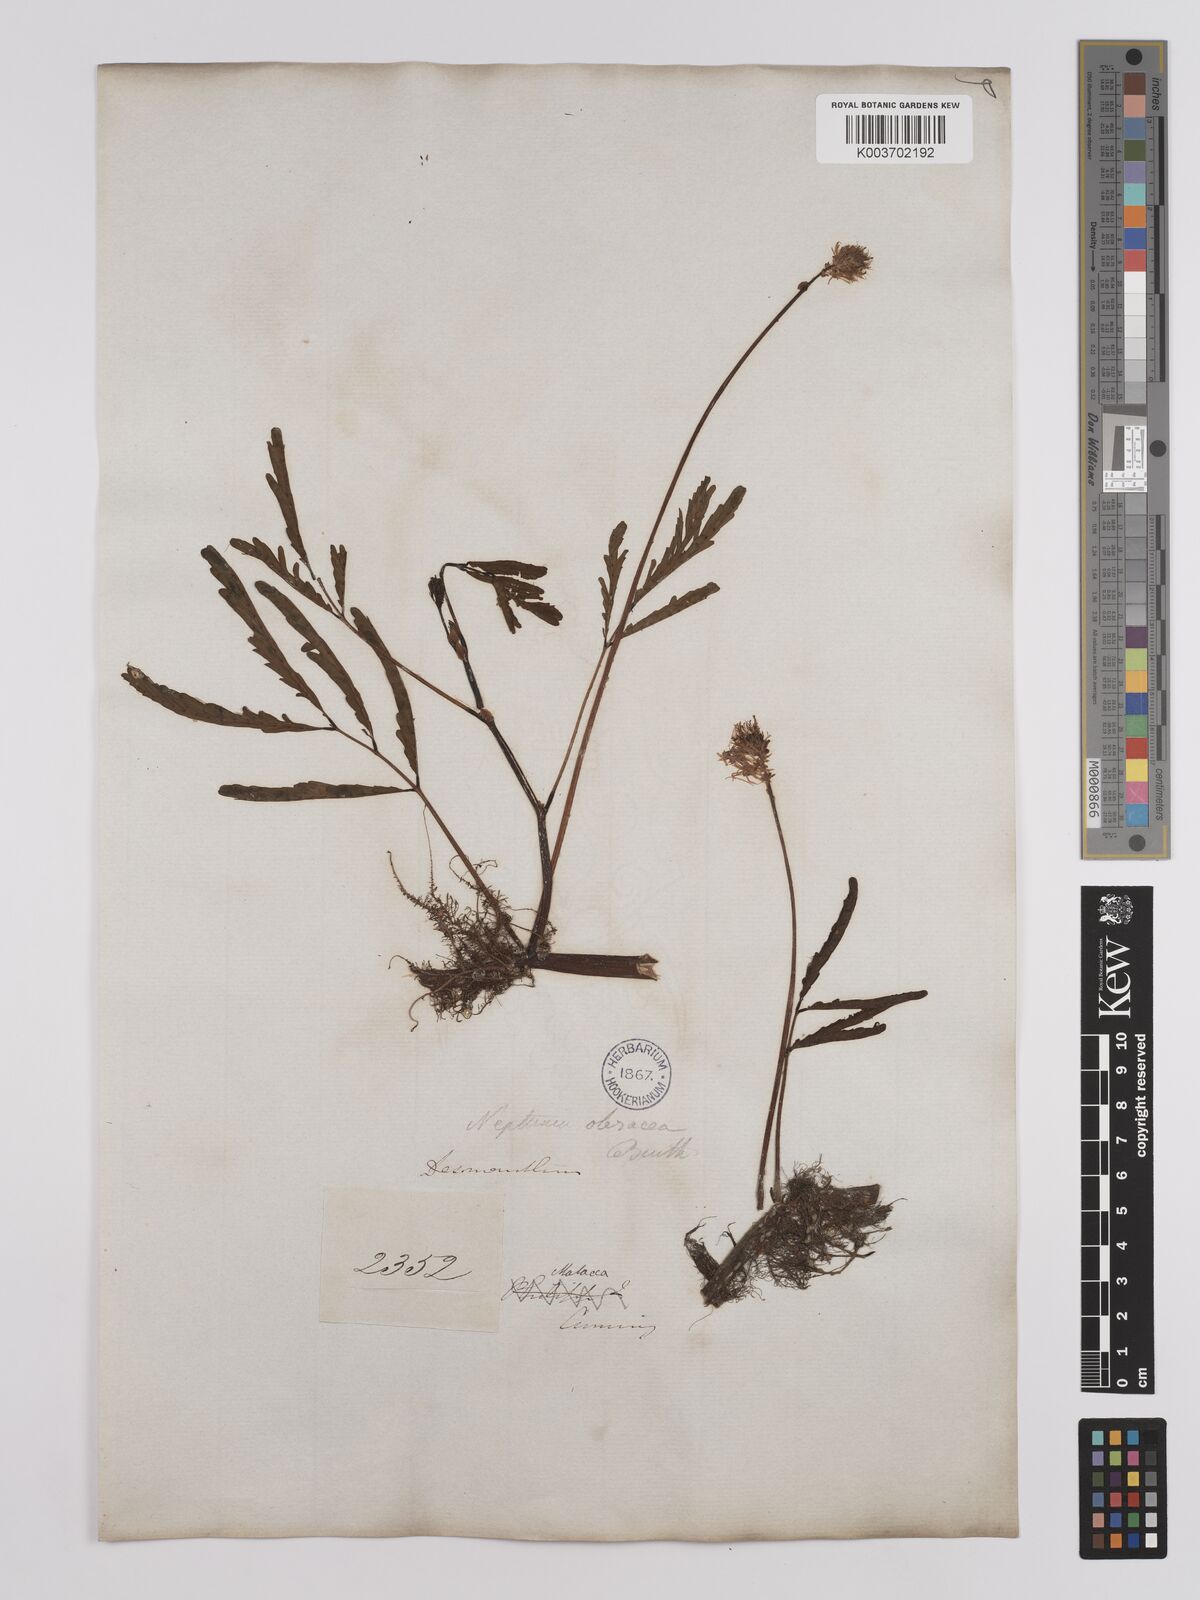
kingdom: Plantae
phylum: Tracheophyta
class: Magnoliopsida
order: Fabales
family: Fabaceae
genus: Neptunia
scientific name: Neptunia prostrata
